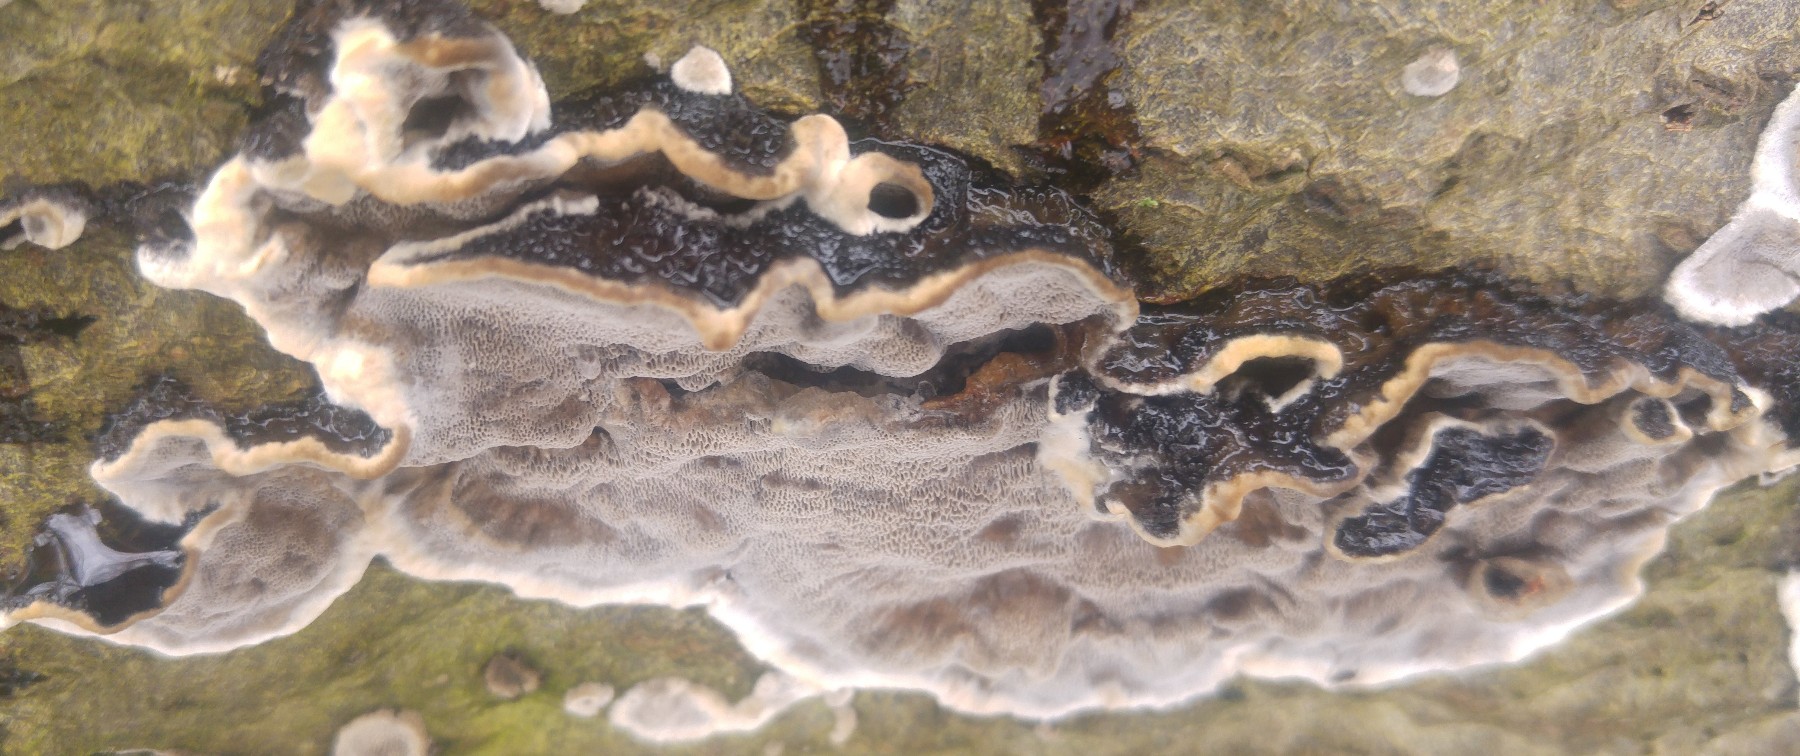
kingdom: Fungi
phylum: Basidiomycota
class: Agaricomycetes
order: Polyporales
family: Phanerochaetaceae
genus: Bjerkandera
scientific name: Bjerkandera adusta
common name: sveden sodporesvamp
